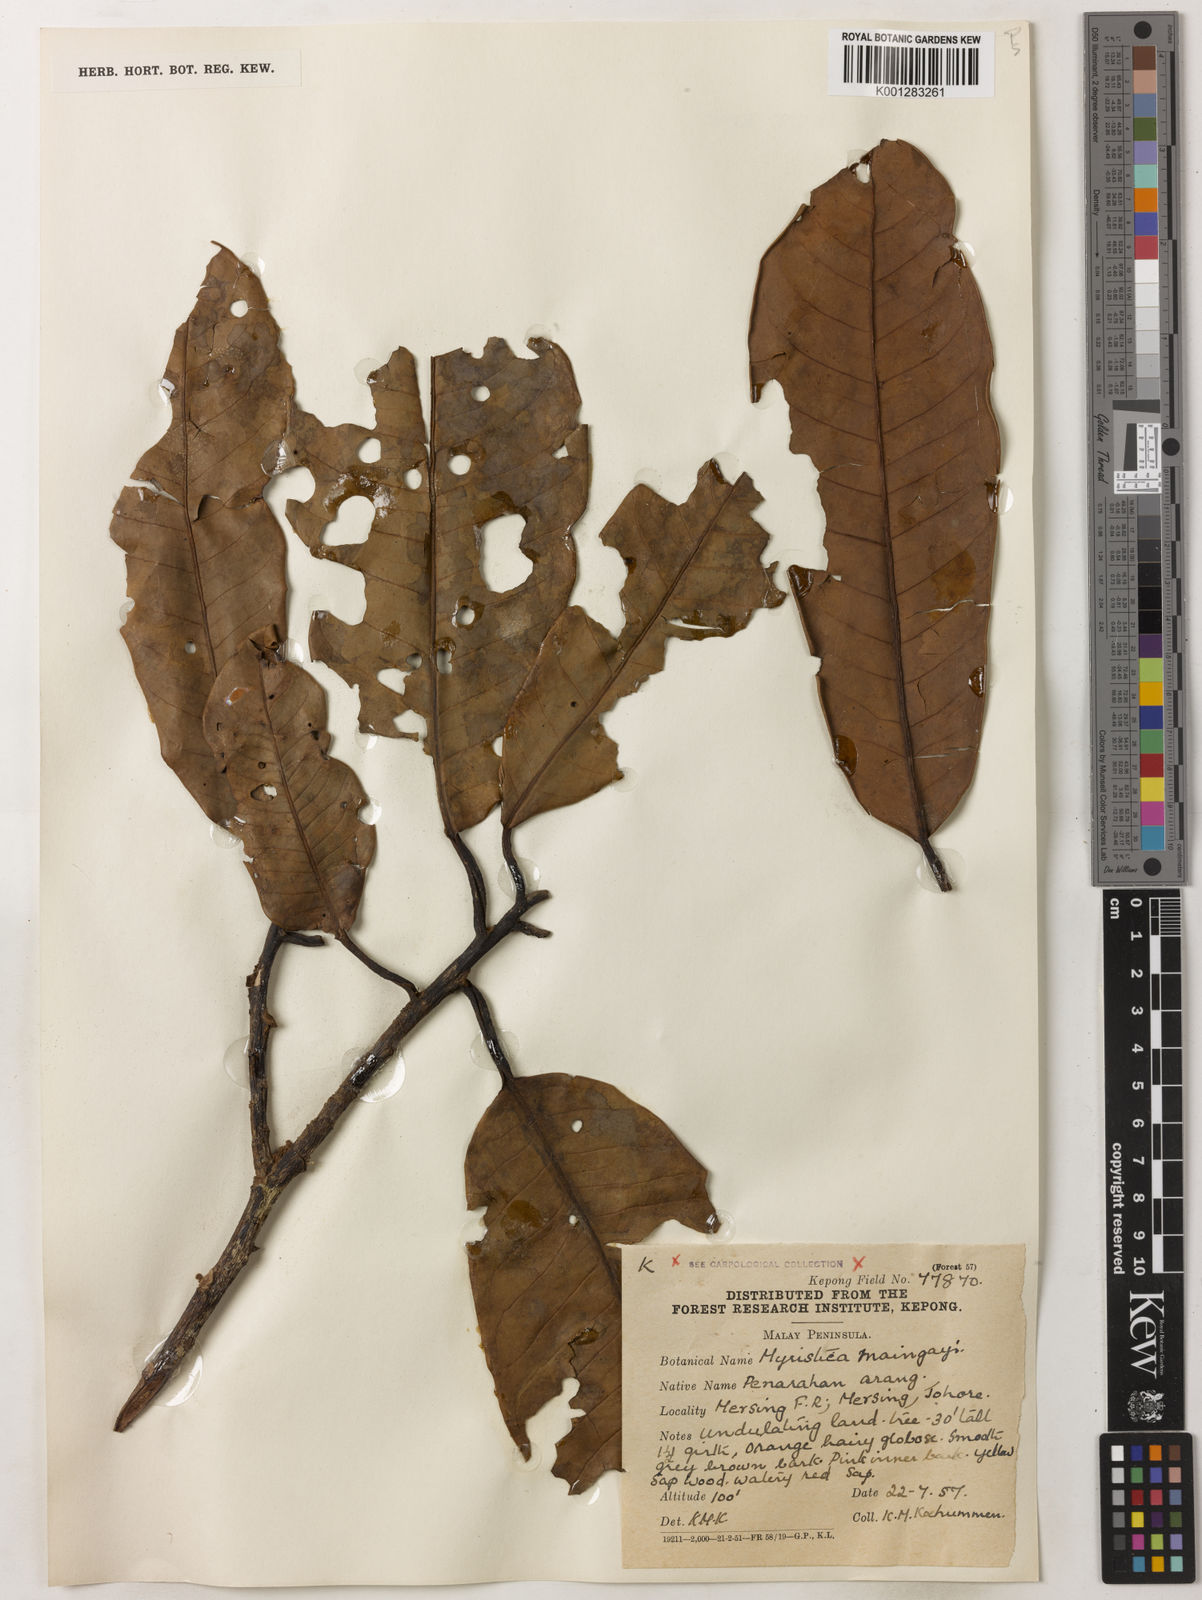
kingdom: Plantae
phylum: Tracheophyta
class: Magnoliopsida
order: Magnoliales
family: Myristicaceae
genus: Myristica
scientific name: Myristica maingayi
